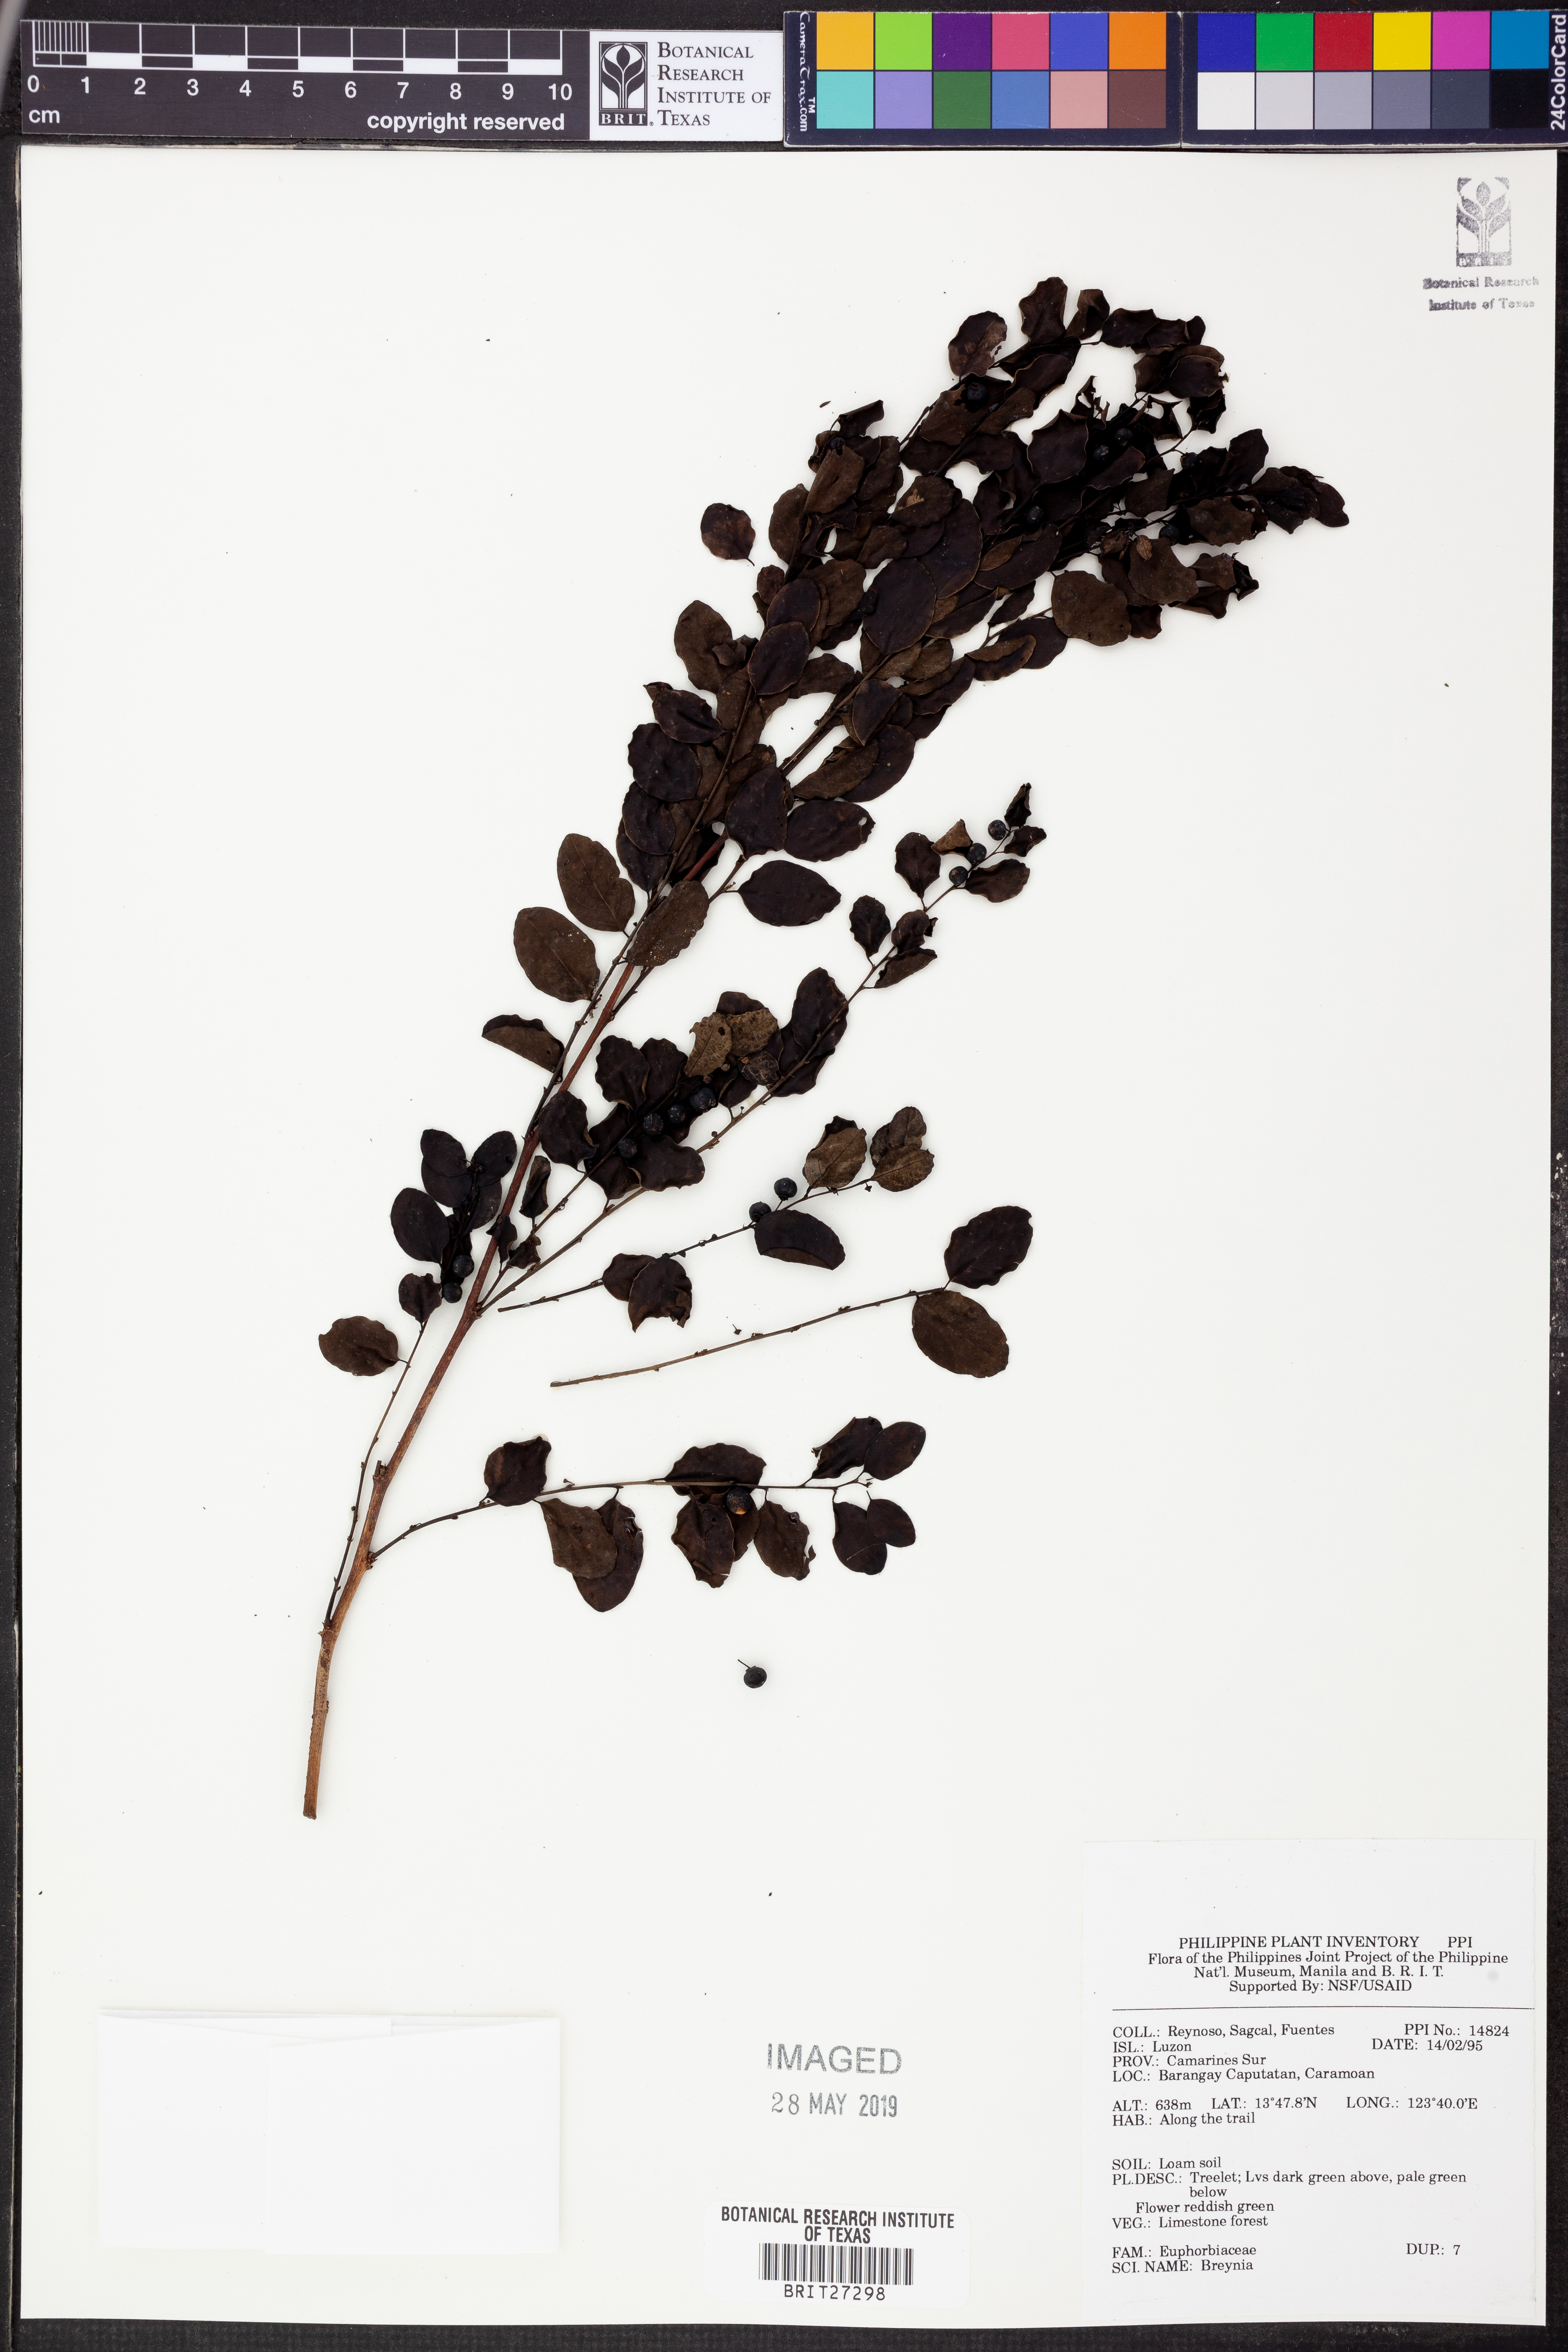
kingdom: Plantae
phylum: Tracheophyta
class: Magnoliopsida
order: Malpighiales
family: Phyllanthaceae
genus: Breynia
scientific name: Breynia
